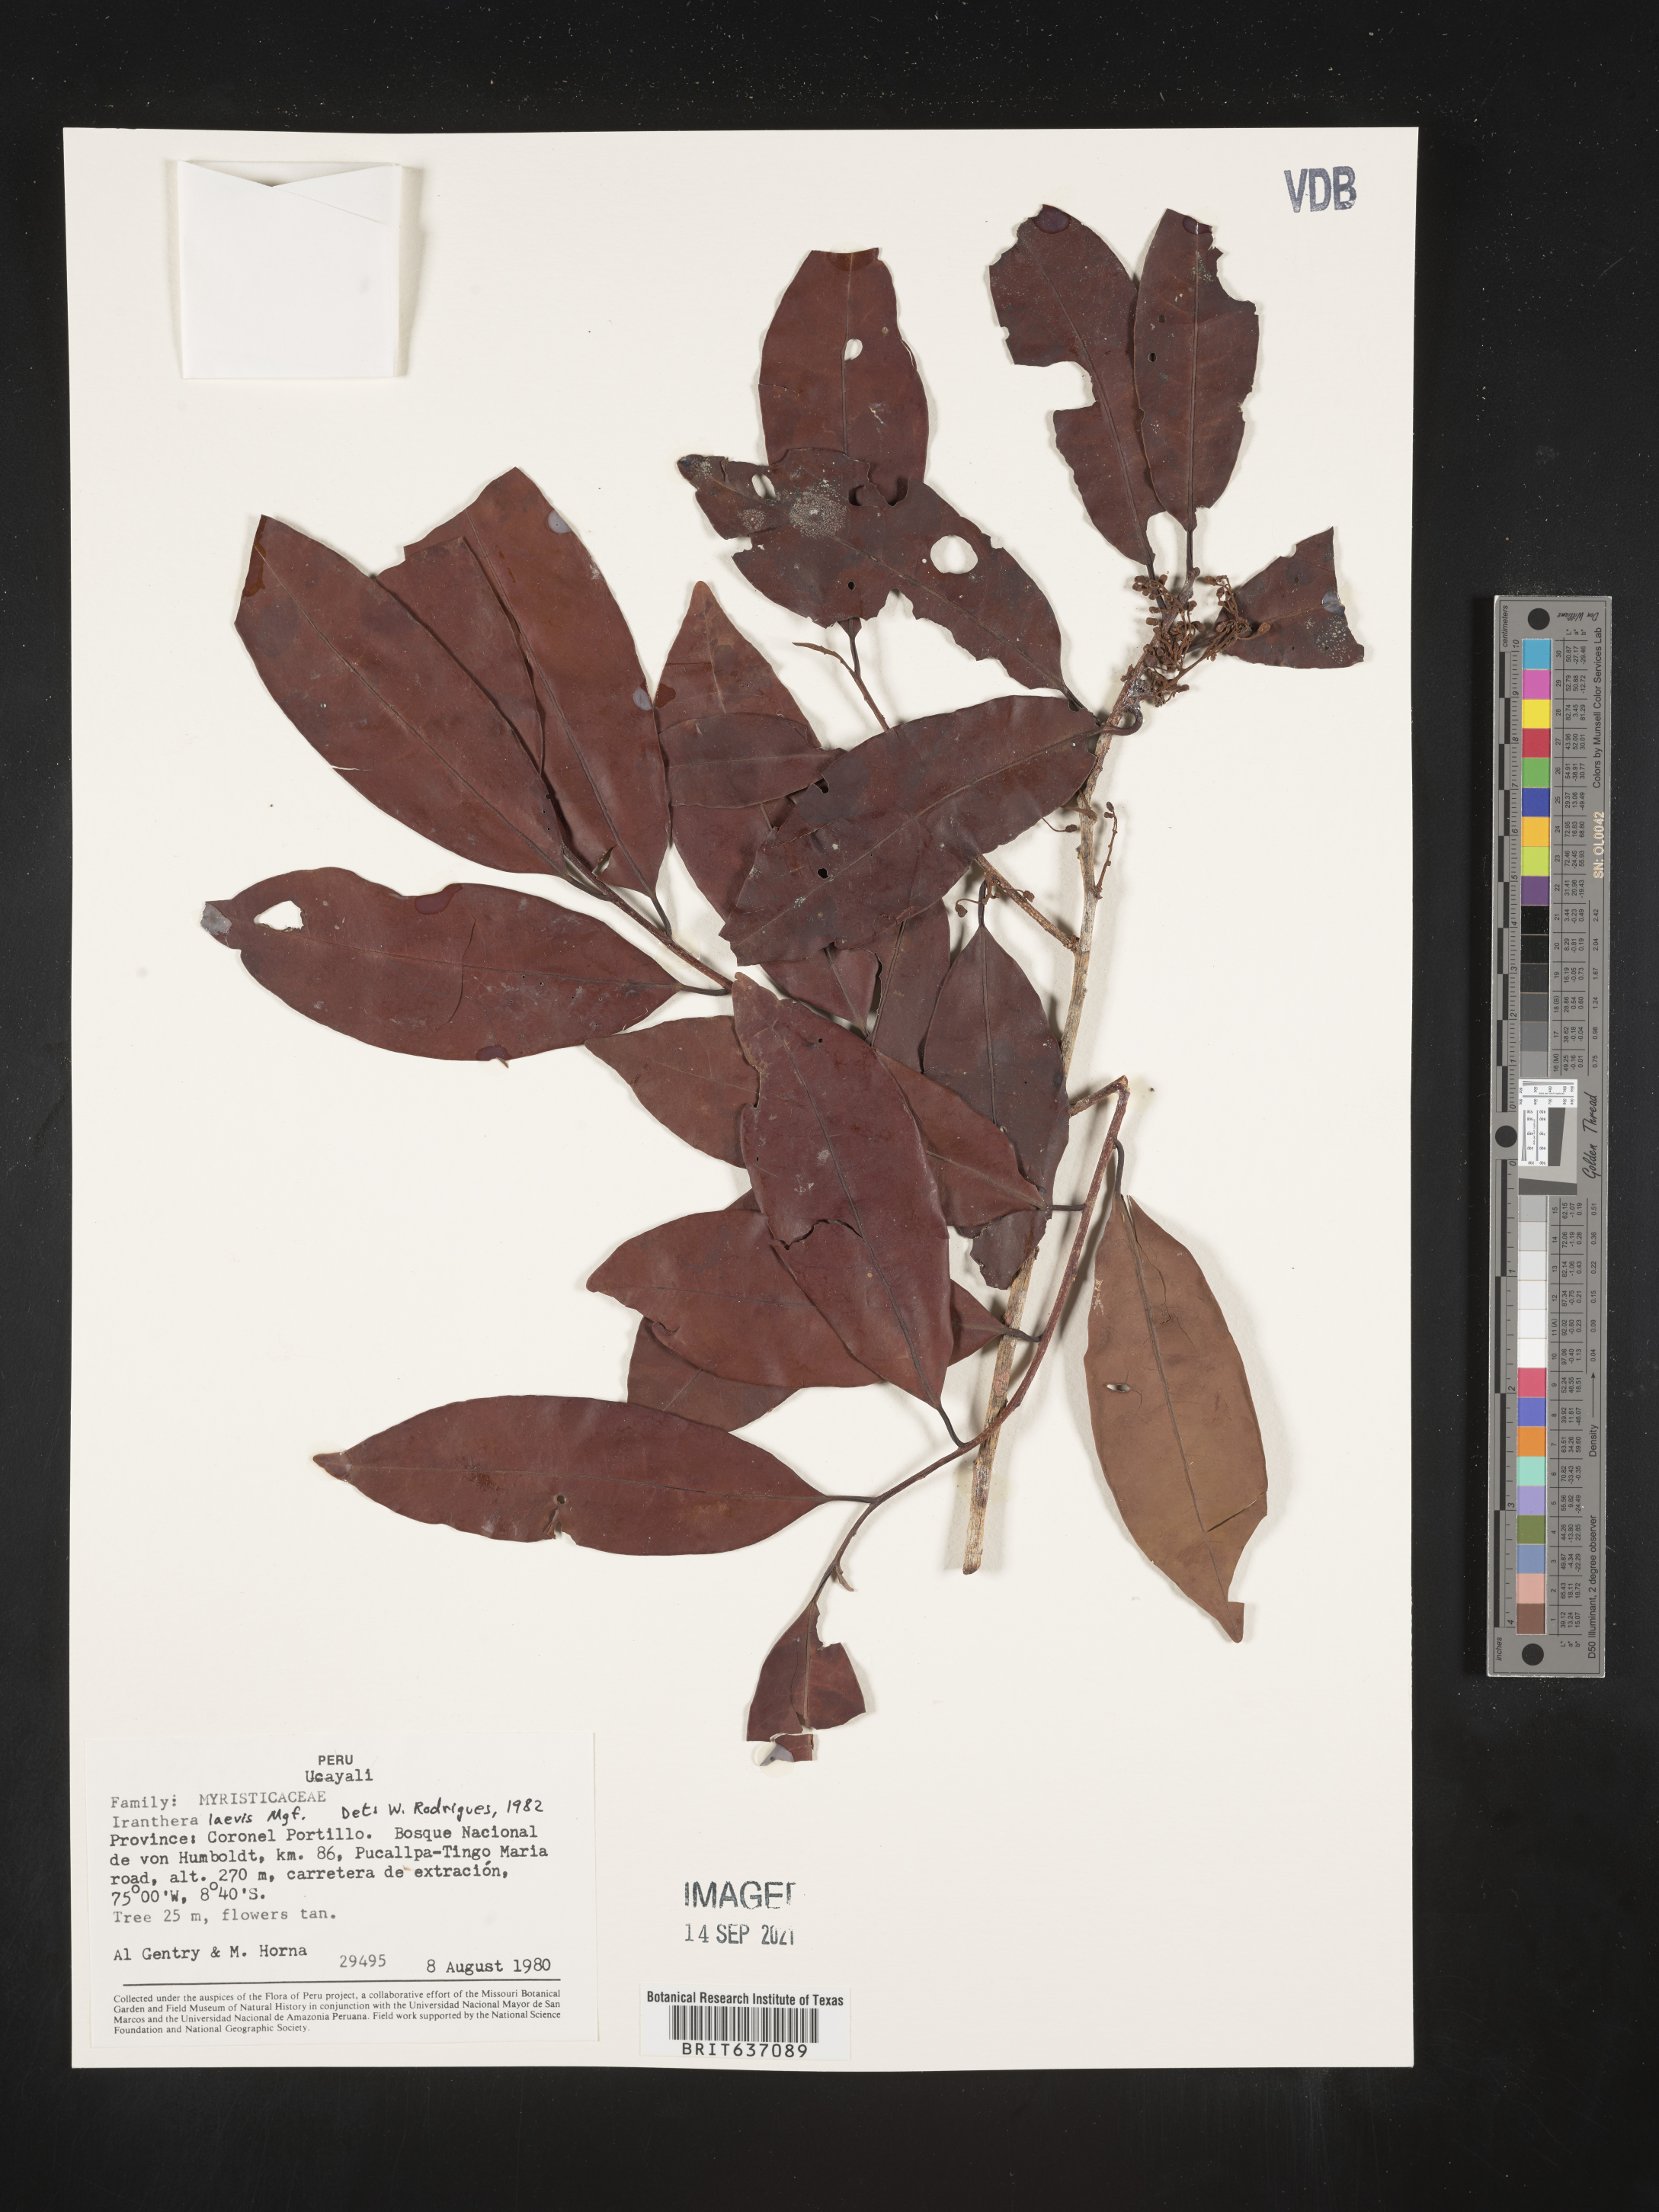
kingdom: Plantae
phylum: Tracheophyta
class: Magnoliopsida
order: Magnoliales
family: Myristicaceae
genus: Iryanthera
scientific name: Iryanthera
